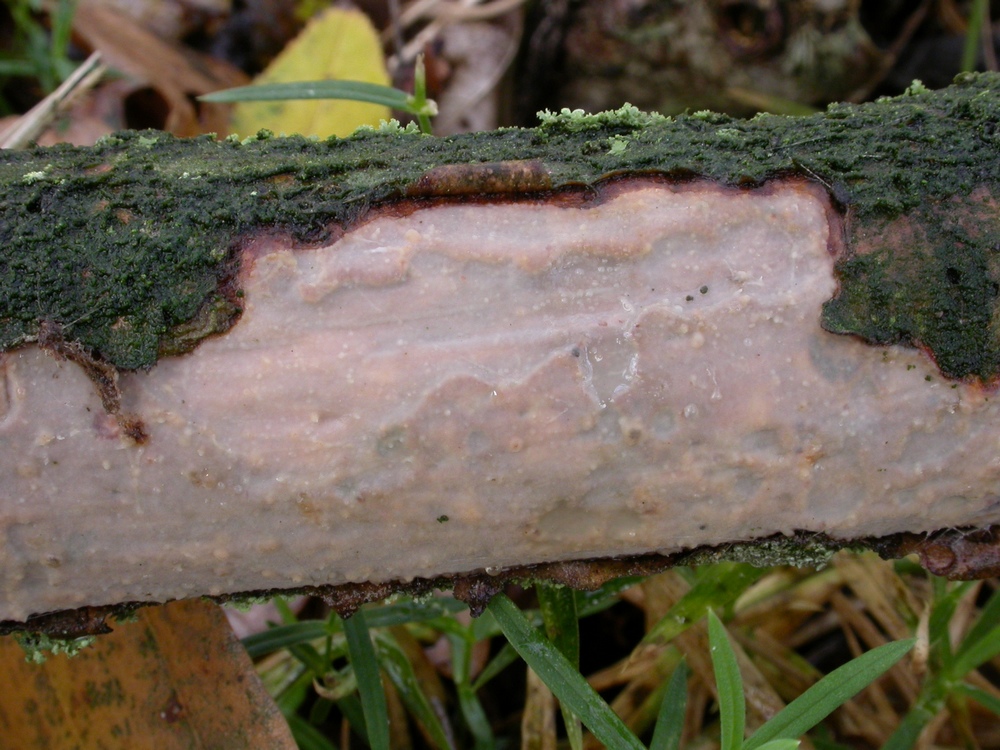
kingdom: Fungi
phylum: Basidiomycota
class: Agaricomycetes
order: Corticiales
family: Vuilleminiaceae
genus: Vuilleminia
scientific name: Vuilleminia comedens
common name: almindelig barksprænger
